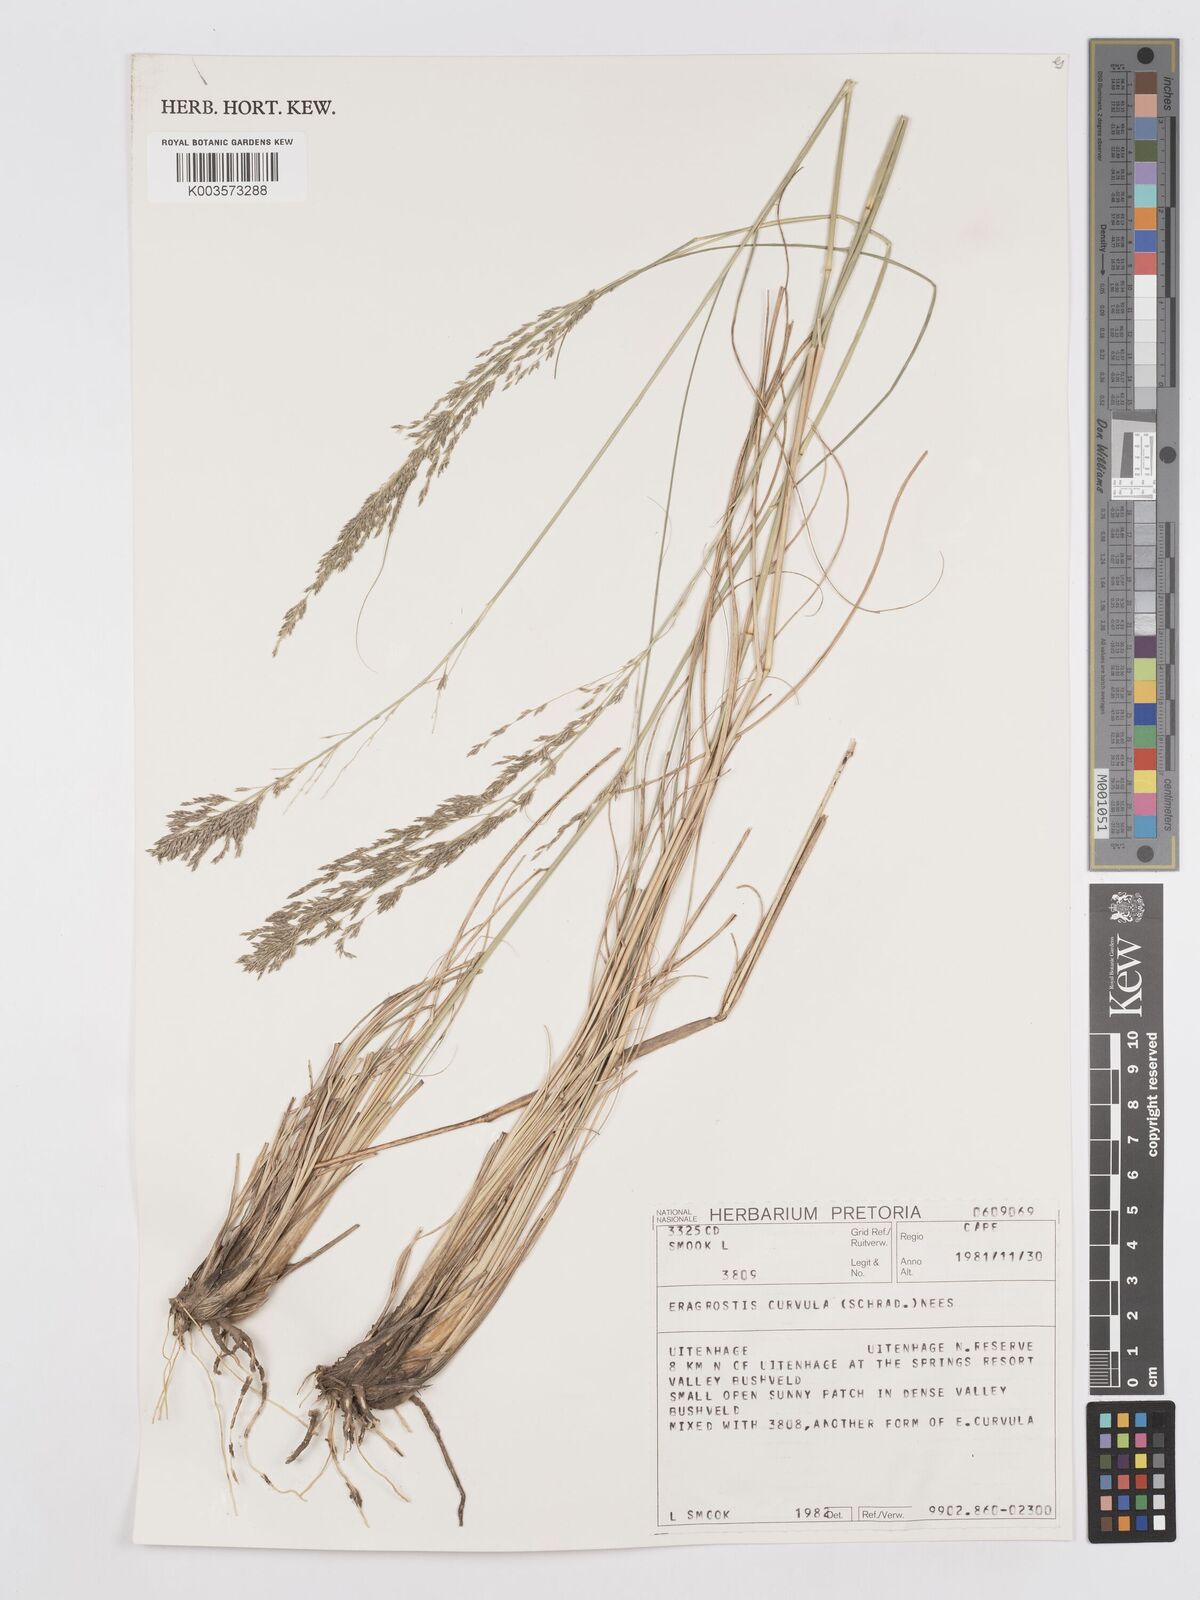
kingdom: Plantae
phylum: Tracheophyta
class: Liliopsida
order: Poales
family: Poaceae
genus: Eragrostis
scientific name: Eragrostis curvula
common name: African love-grass
